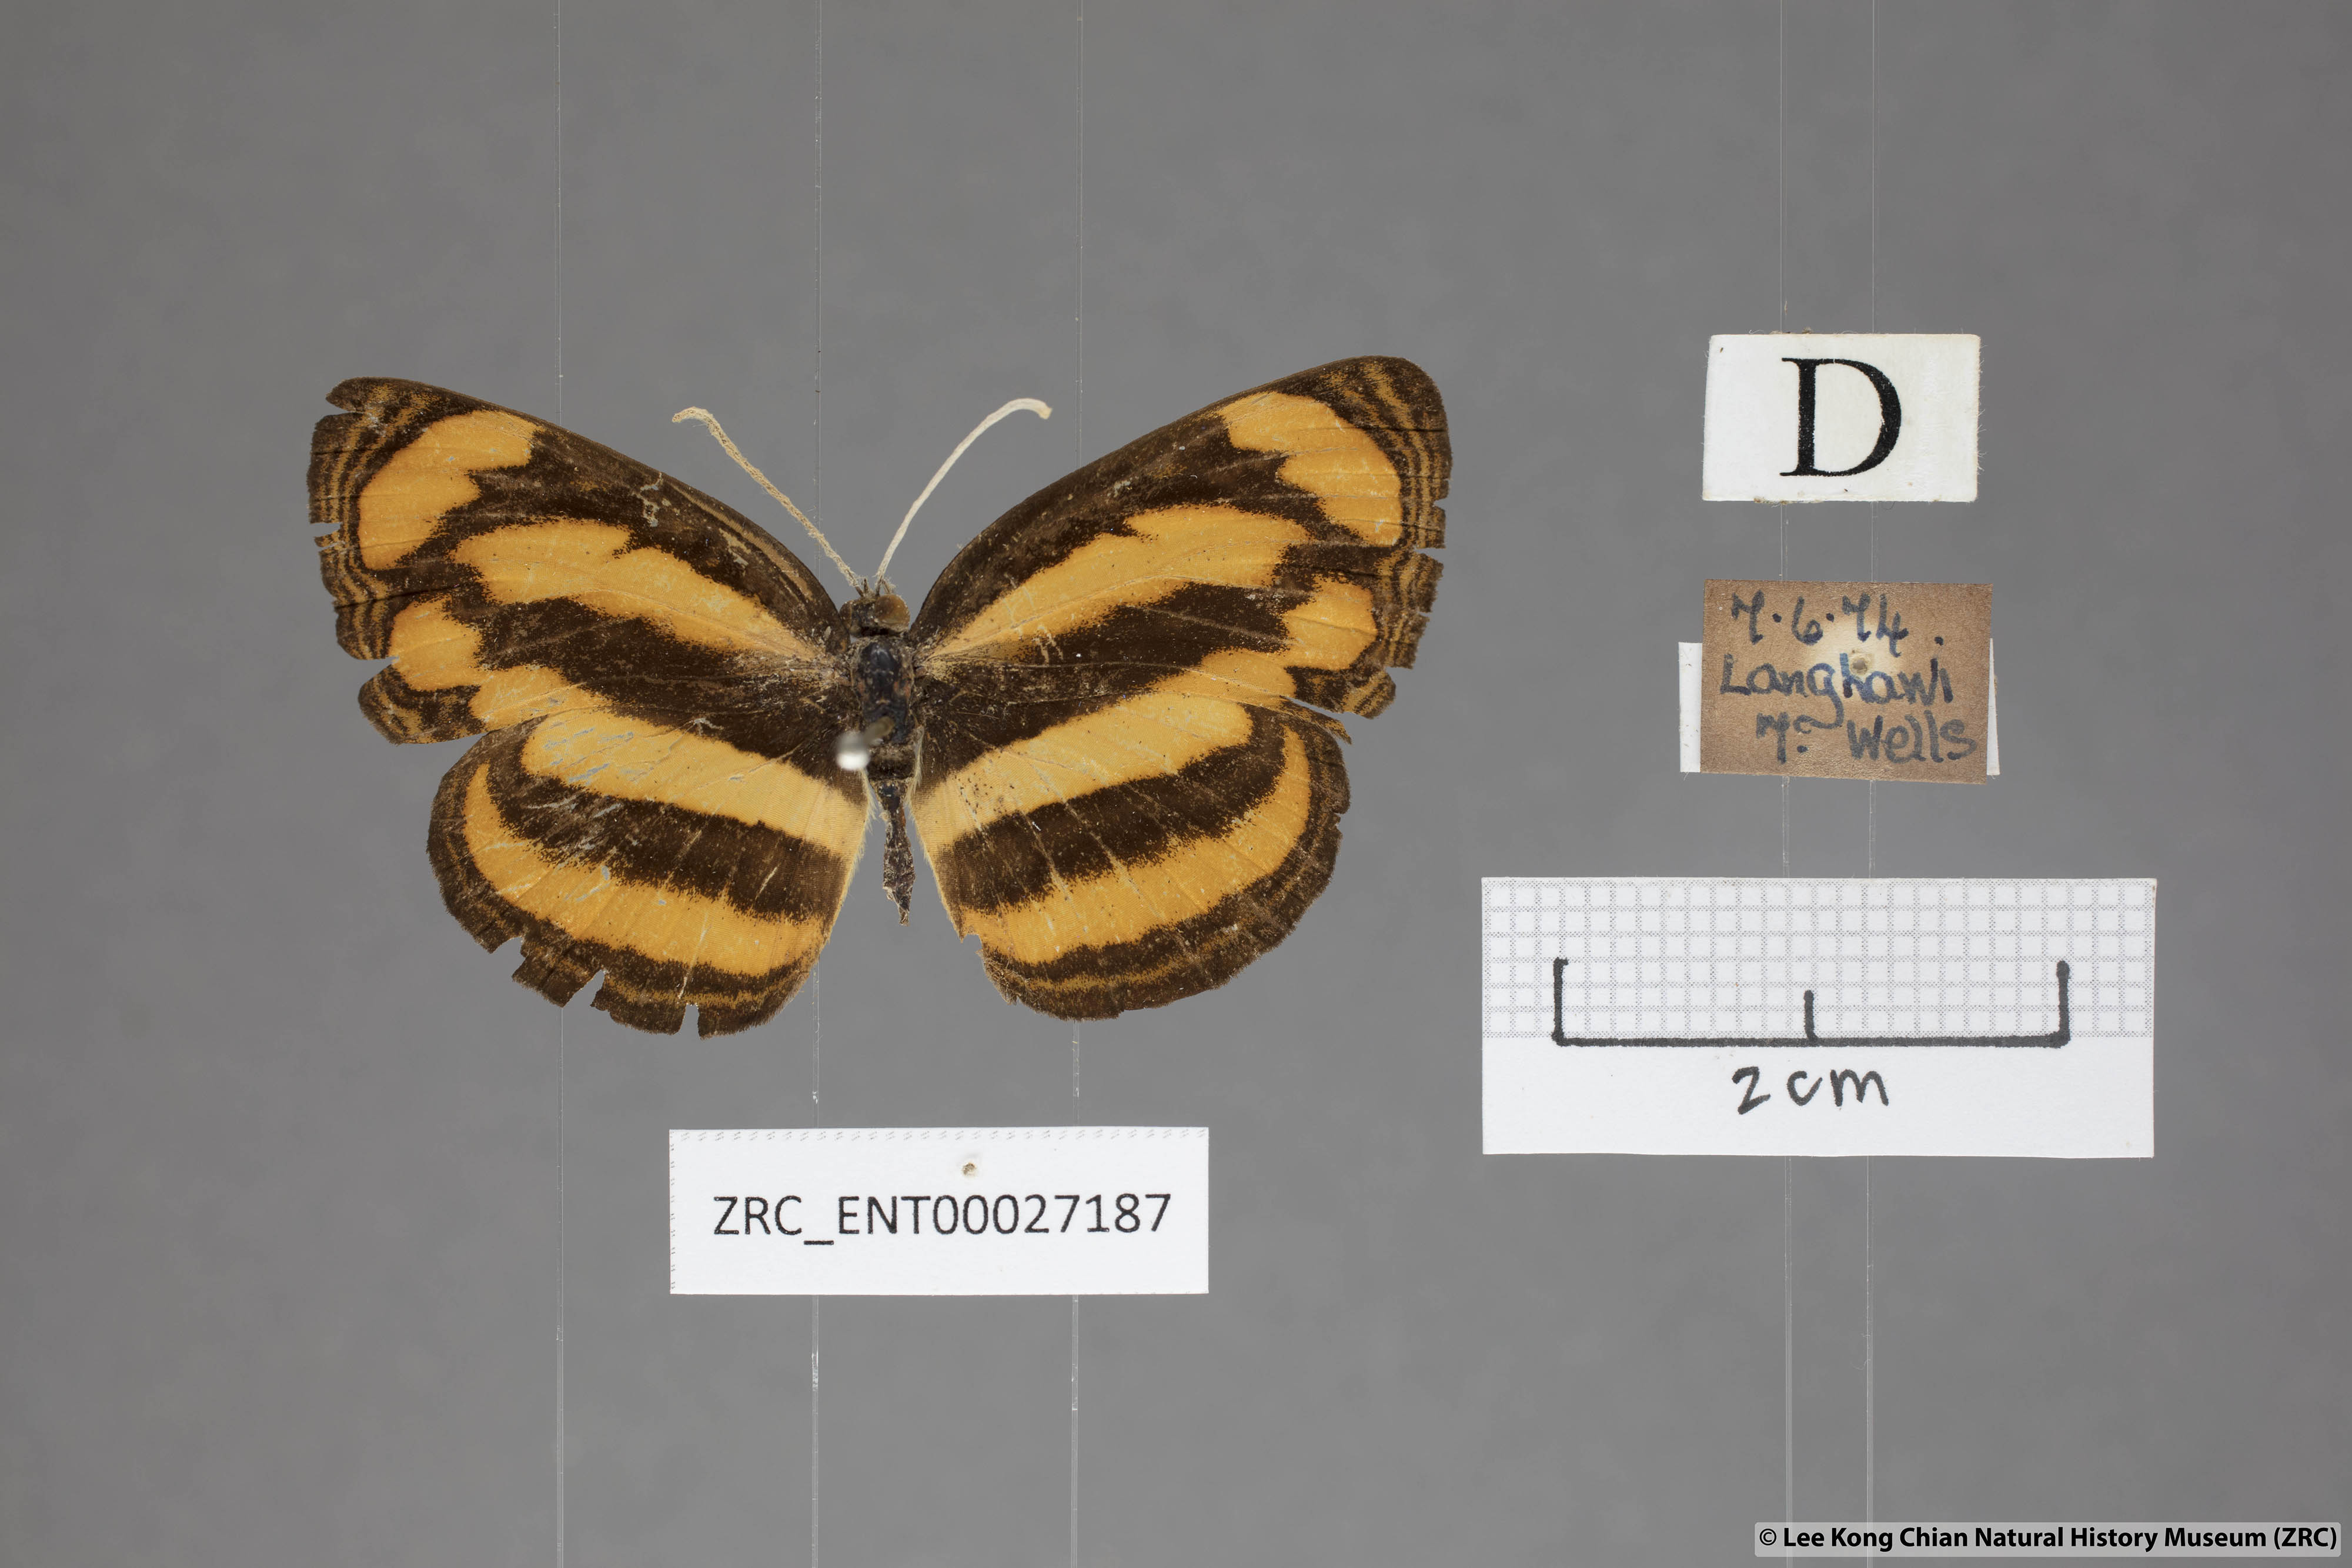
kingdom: Animalia
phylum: Arthropoda
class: Insecta
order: Lepidoptera
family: Nymphalidae
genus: Pantoporia
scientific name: Pantoporia paraka
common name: Perak lascar
